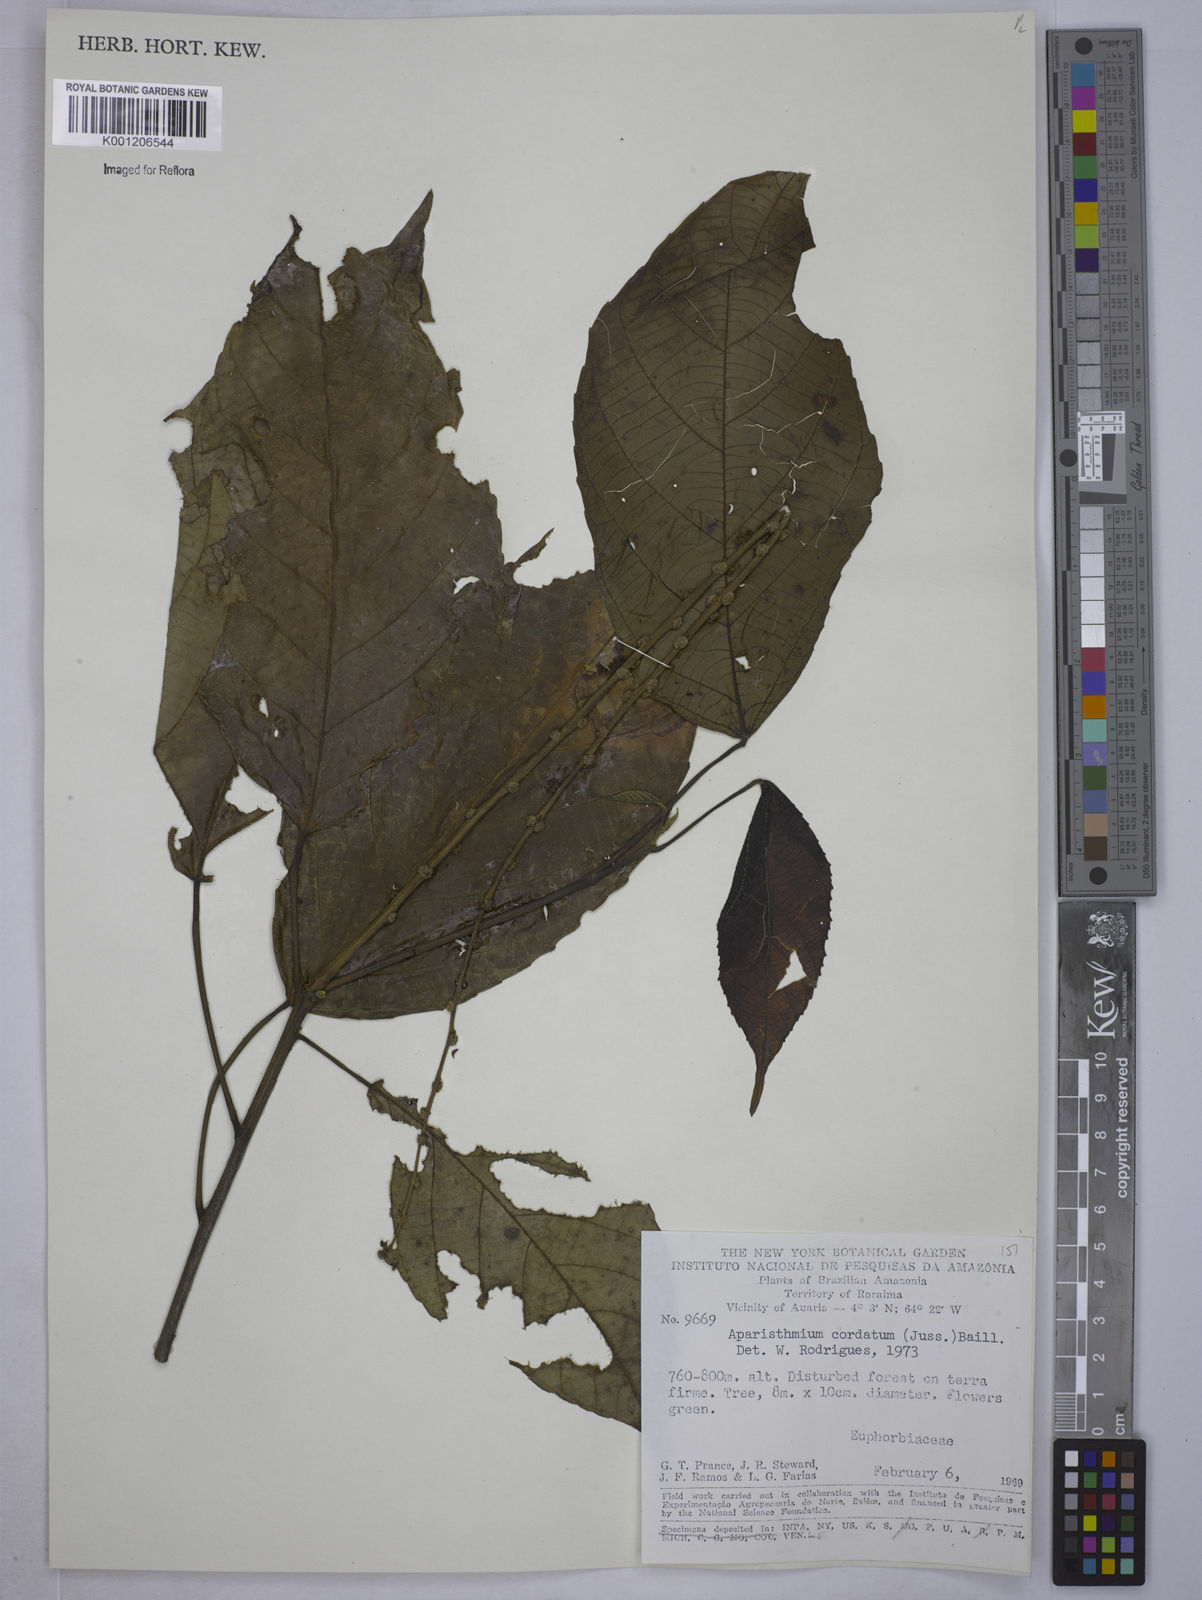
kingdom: Plantae
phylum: Tracheophyta
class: Magnoliopsida
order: Malpighiales
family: Euphorbiaceae
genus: Aparisthmium
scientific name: Aparisthmium cordatum
